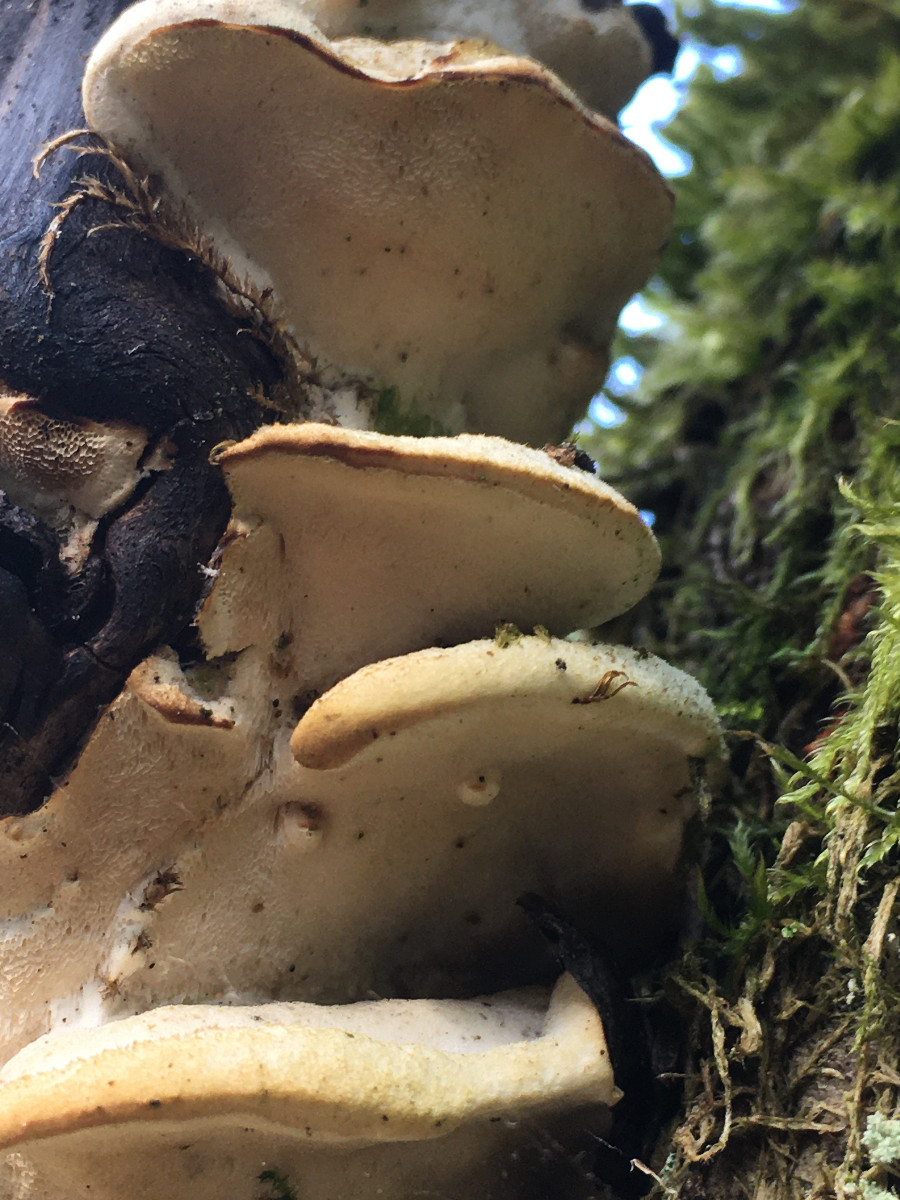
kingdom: Fungi
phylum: Basidiomycota
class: Agaricomycetes
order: Hymenochaetales
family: Oxyporaceae
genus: Oxyporus
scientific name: Oxyporus populinus
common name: sammenvokset trylleporesvamp
